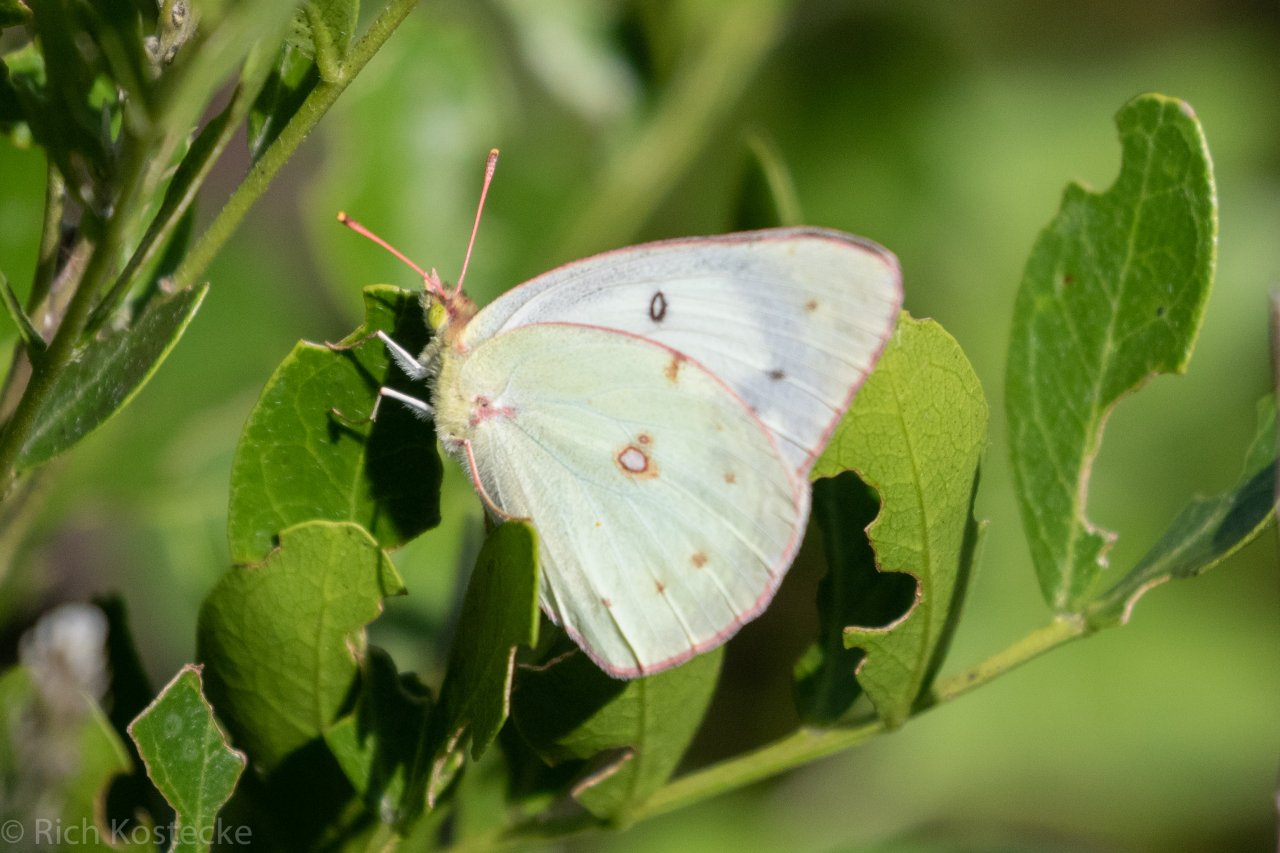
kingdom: Animalia
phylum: Arthropoda
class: Insecta
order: Lepidoptera
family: Pieridae
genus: Colias
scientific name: Colias eurytheme
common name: Orange Sulphur
